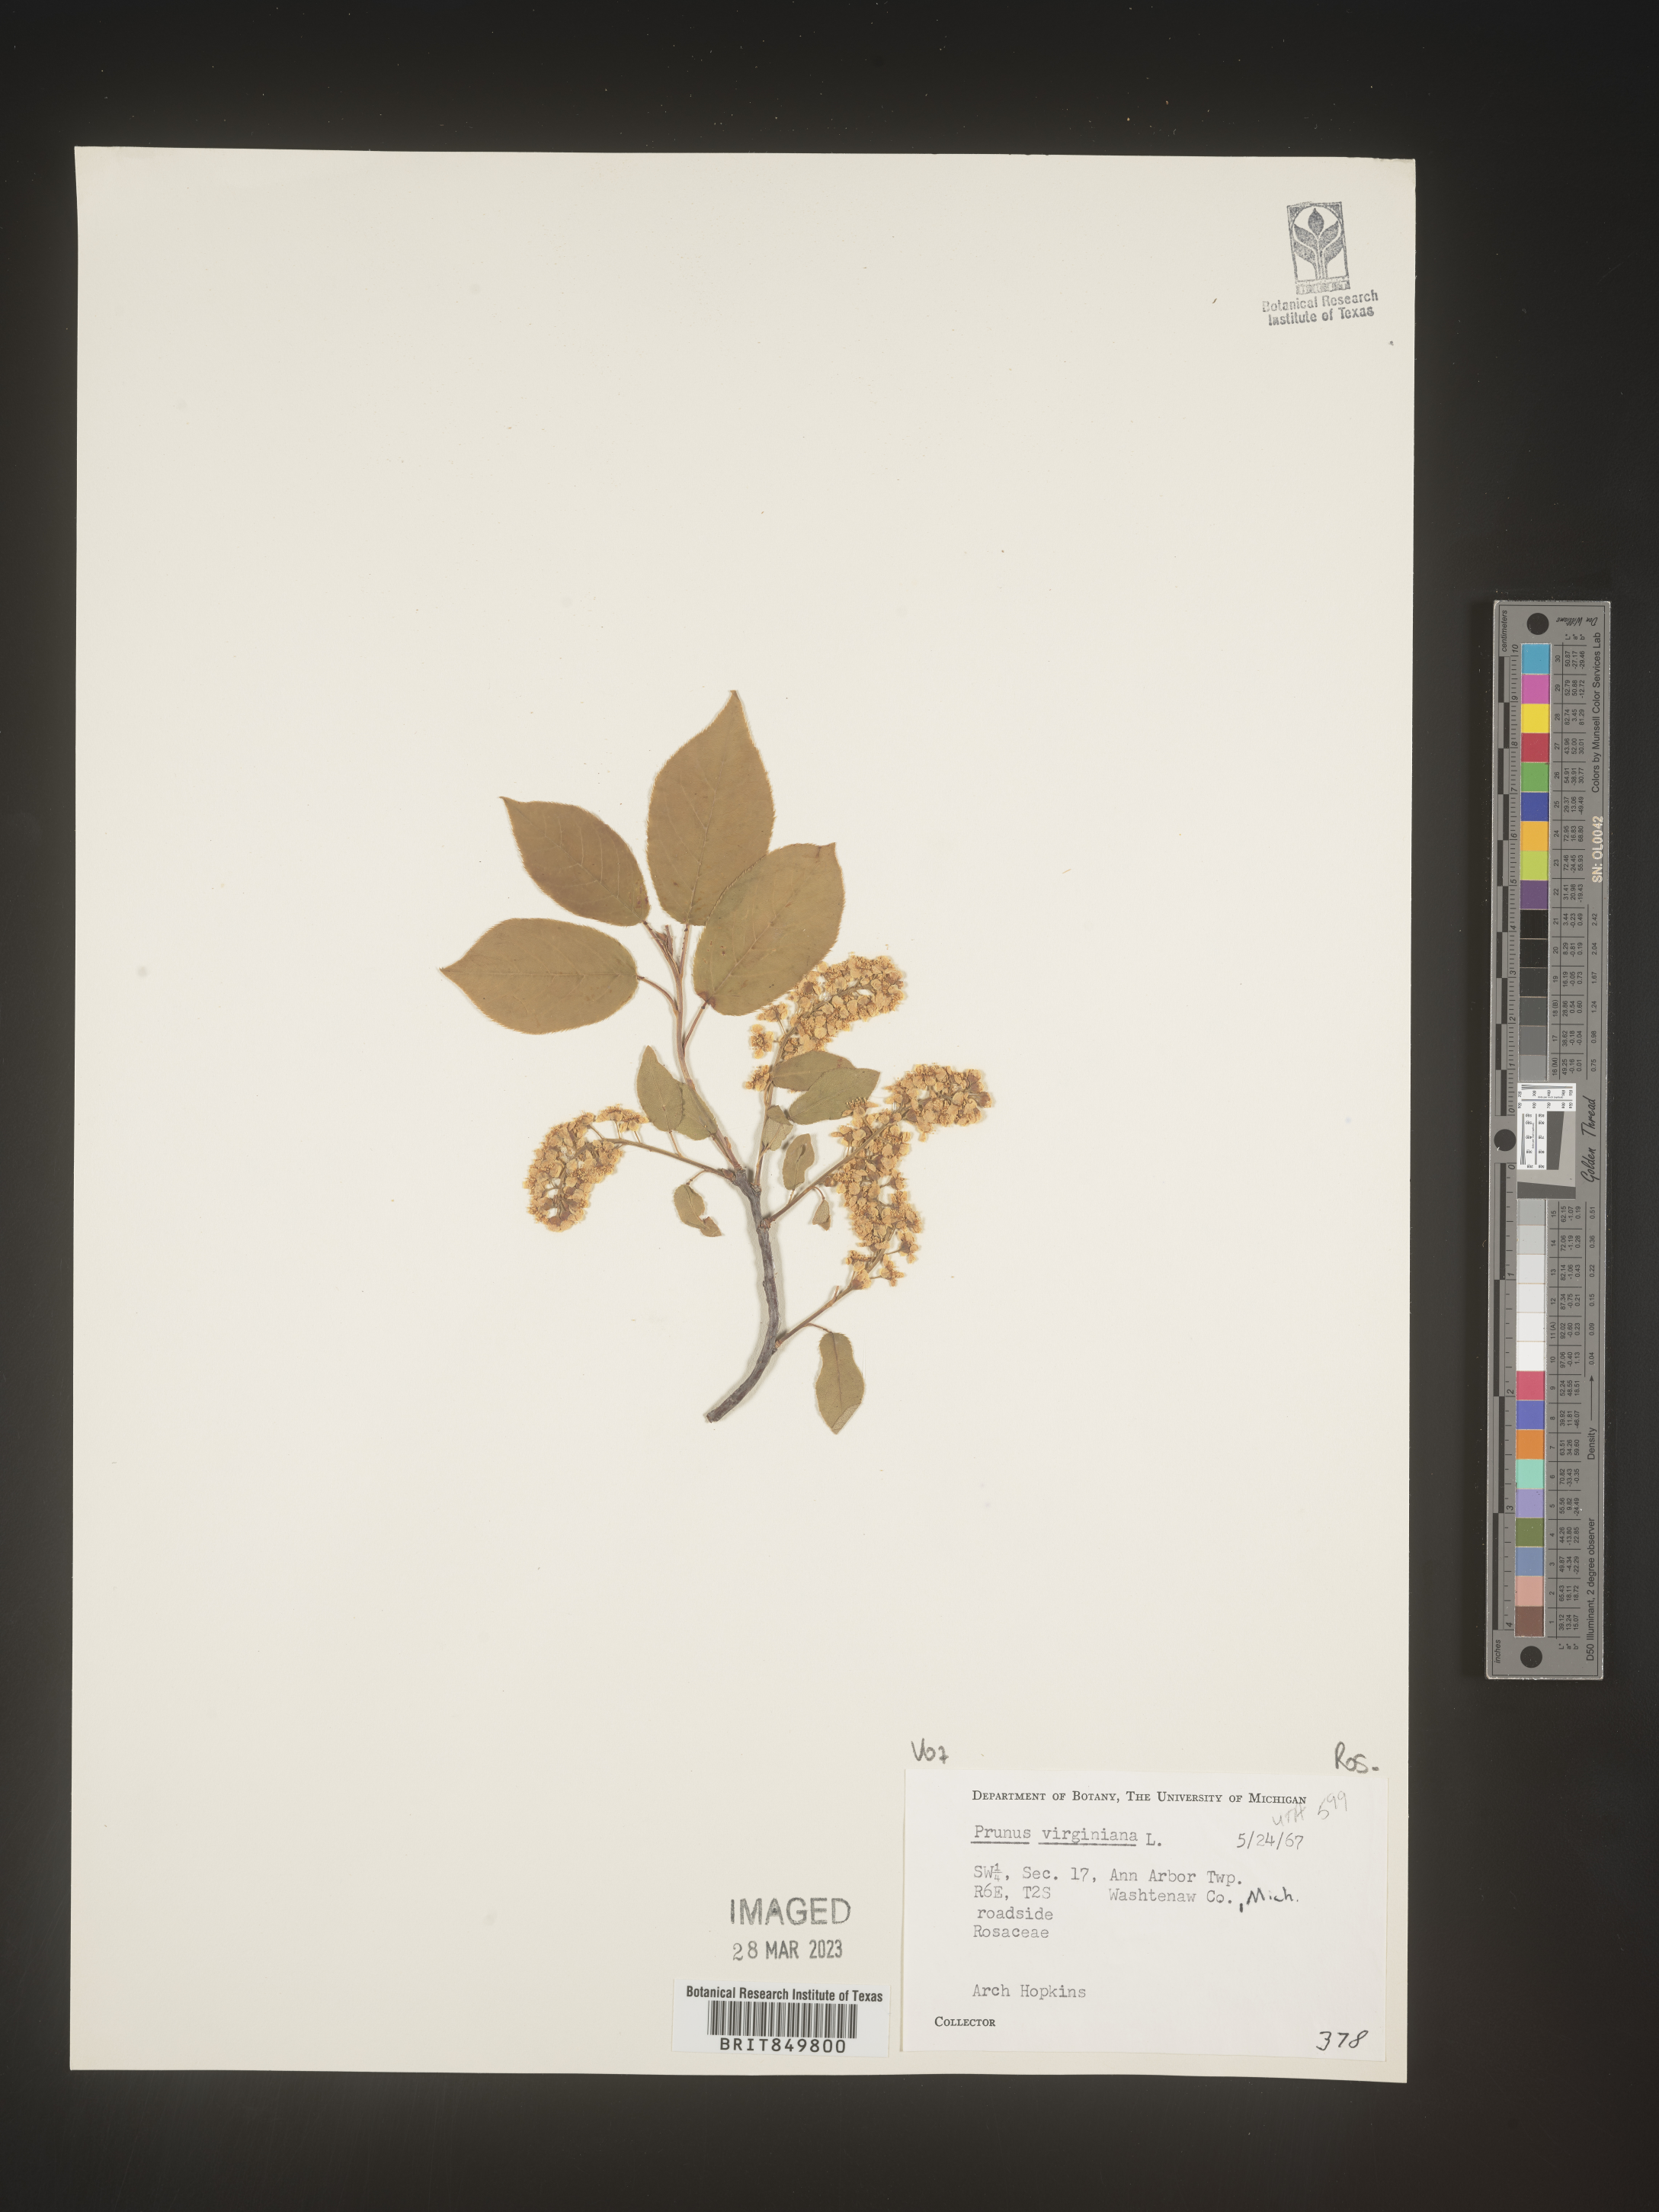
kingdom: Plantae
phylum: Tracheophyta
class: Magnoliopsida
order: Rosales
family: Rosaceae
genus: Prunus
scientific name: Prunus virginiana
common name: Chokecherry
